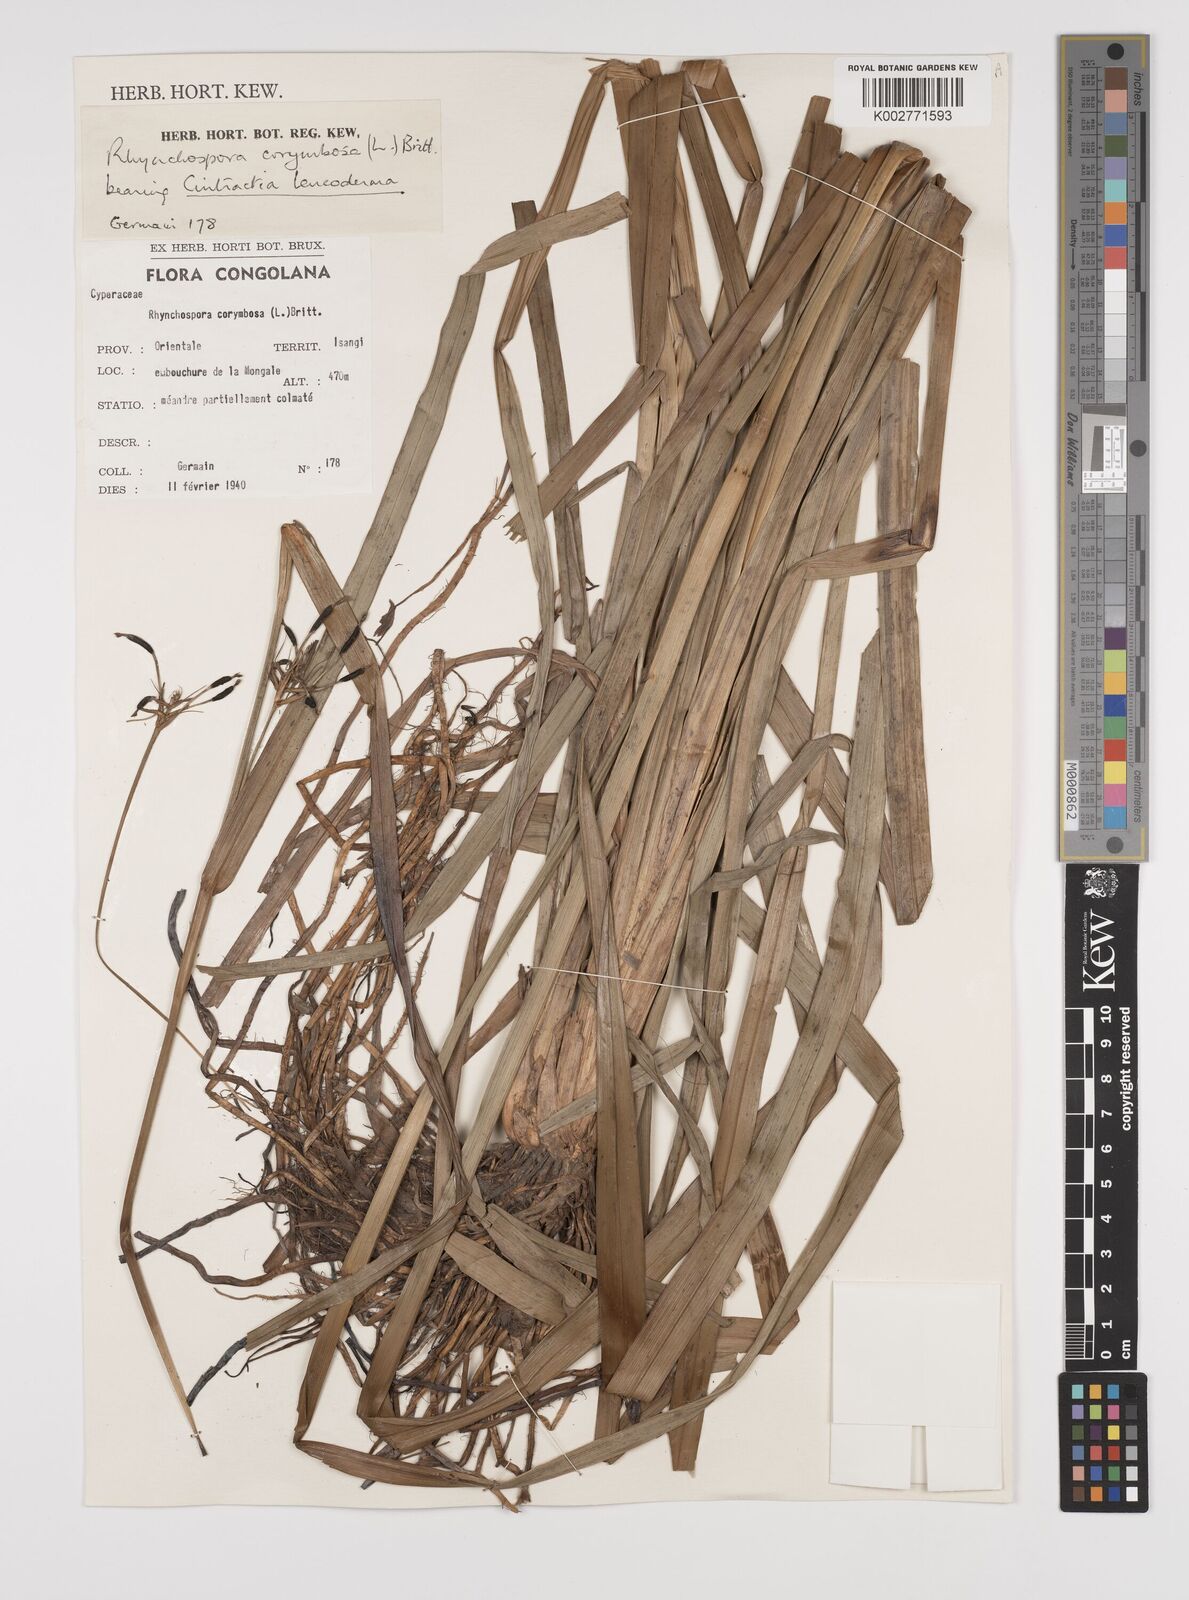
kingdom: Plantae
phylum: Tracheophyta
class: Liliopsida
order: Poales
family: Cyperaceae
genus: Rhynchospora
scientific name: Rhynchospora corymbosa
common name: Golden beak sedge
